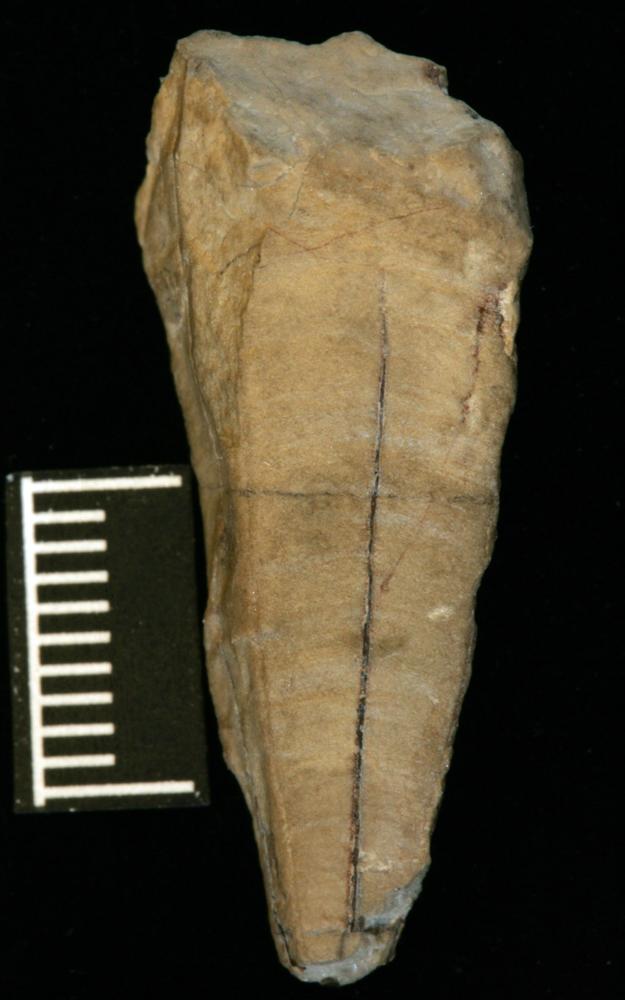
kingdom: Animalia
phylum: Cnidaria
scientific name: Cnidaria
